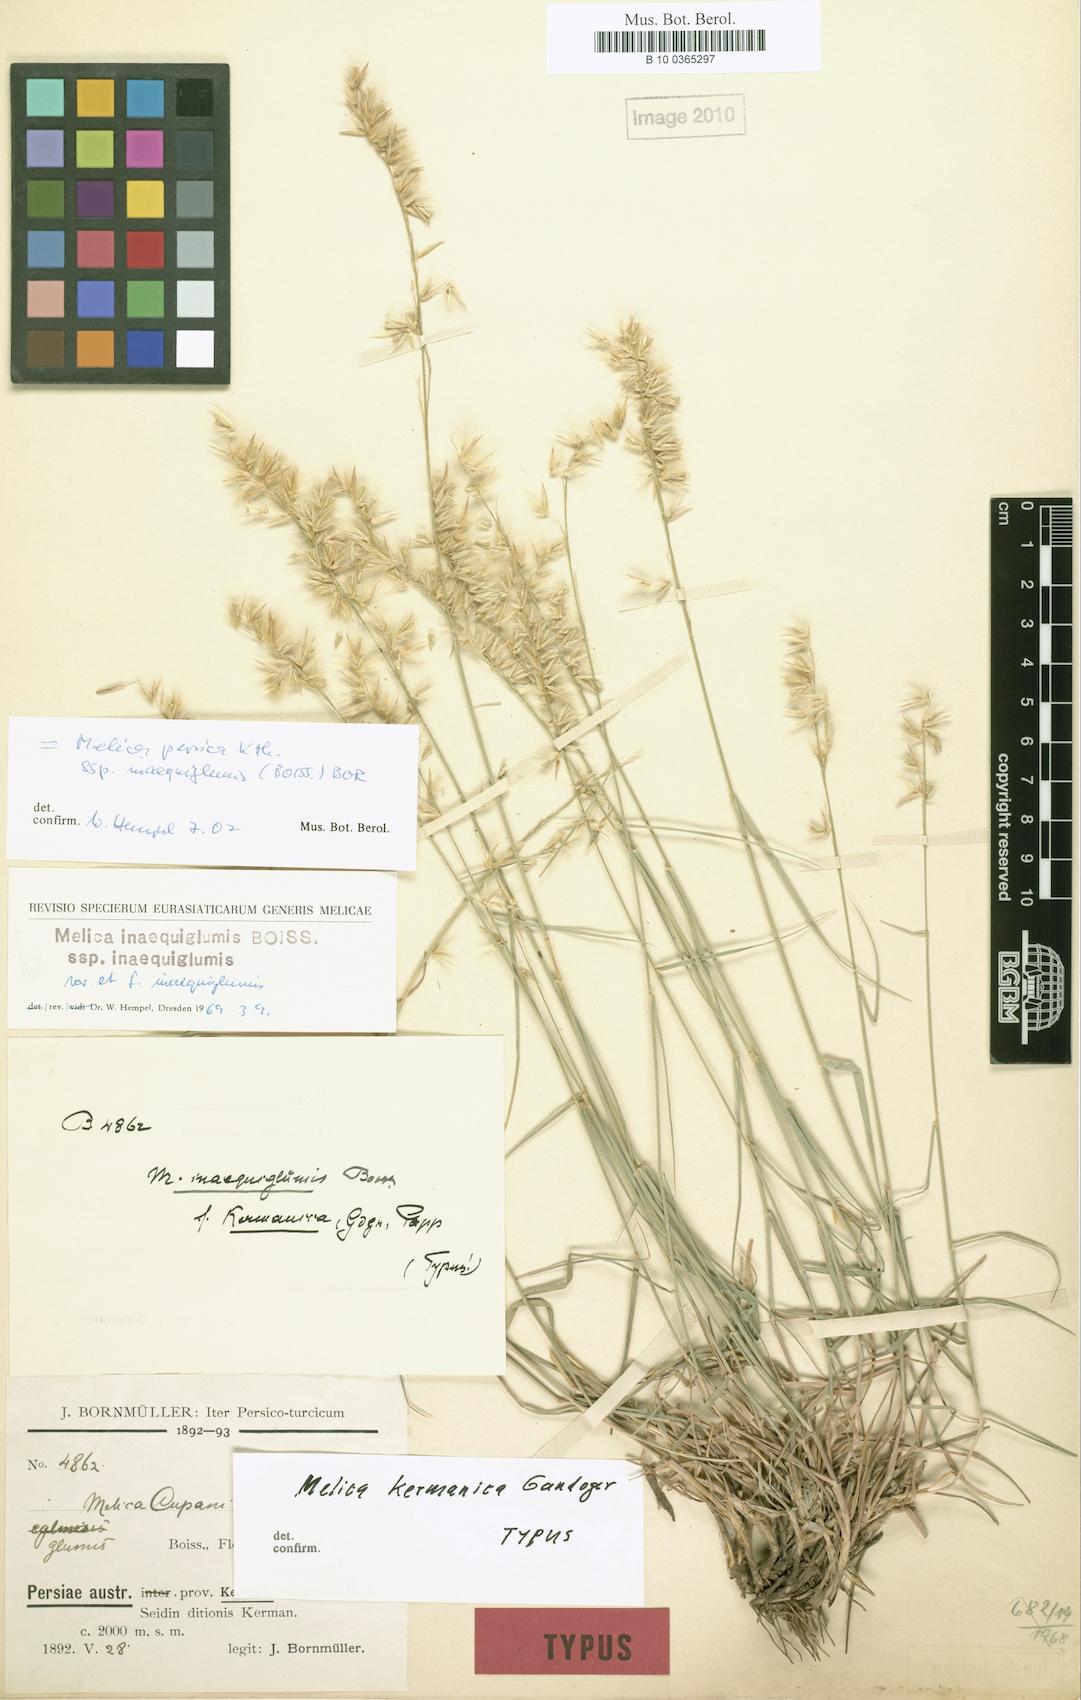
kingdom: Plantae
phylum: Tracheophyta
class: Liliopsida
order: Poales
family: Poaceae
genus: Melica
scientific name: Melica persica
